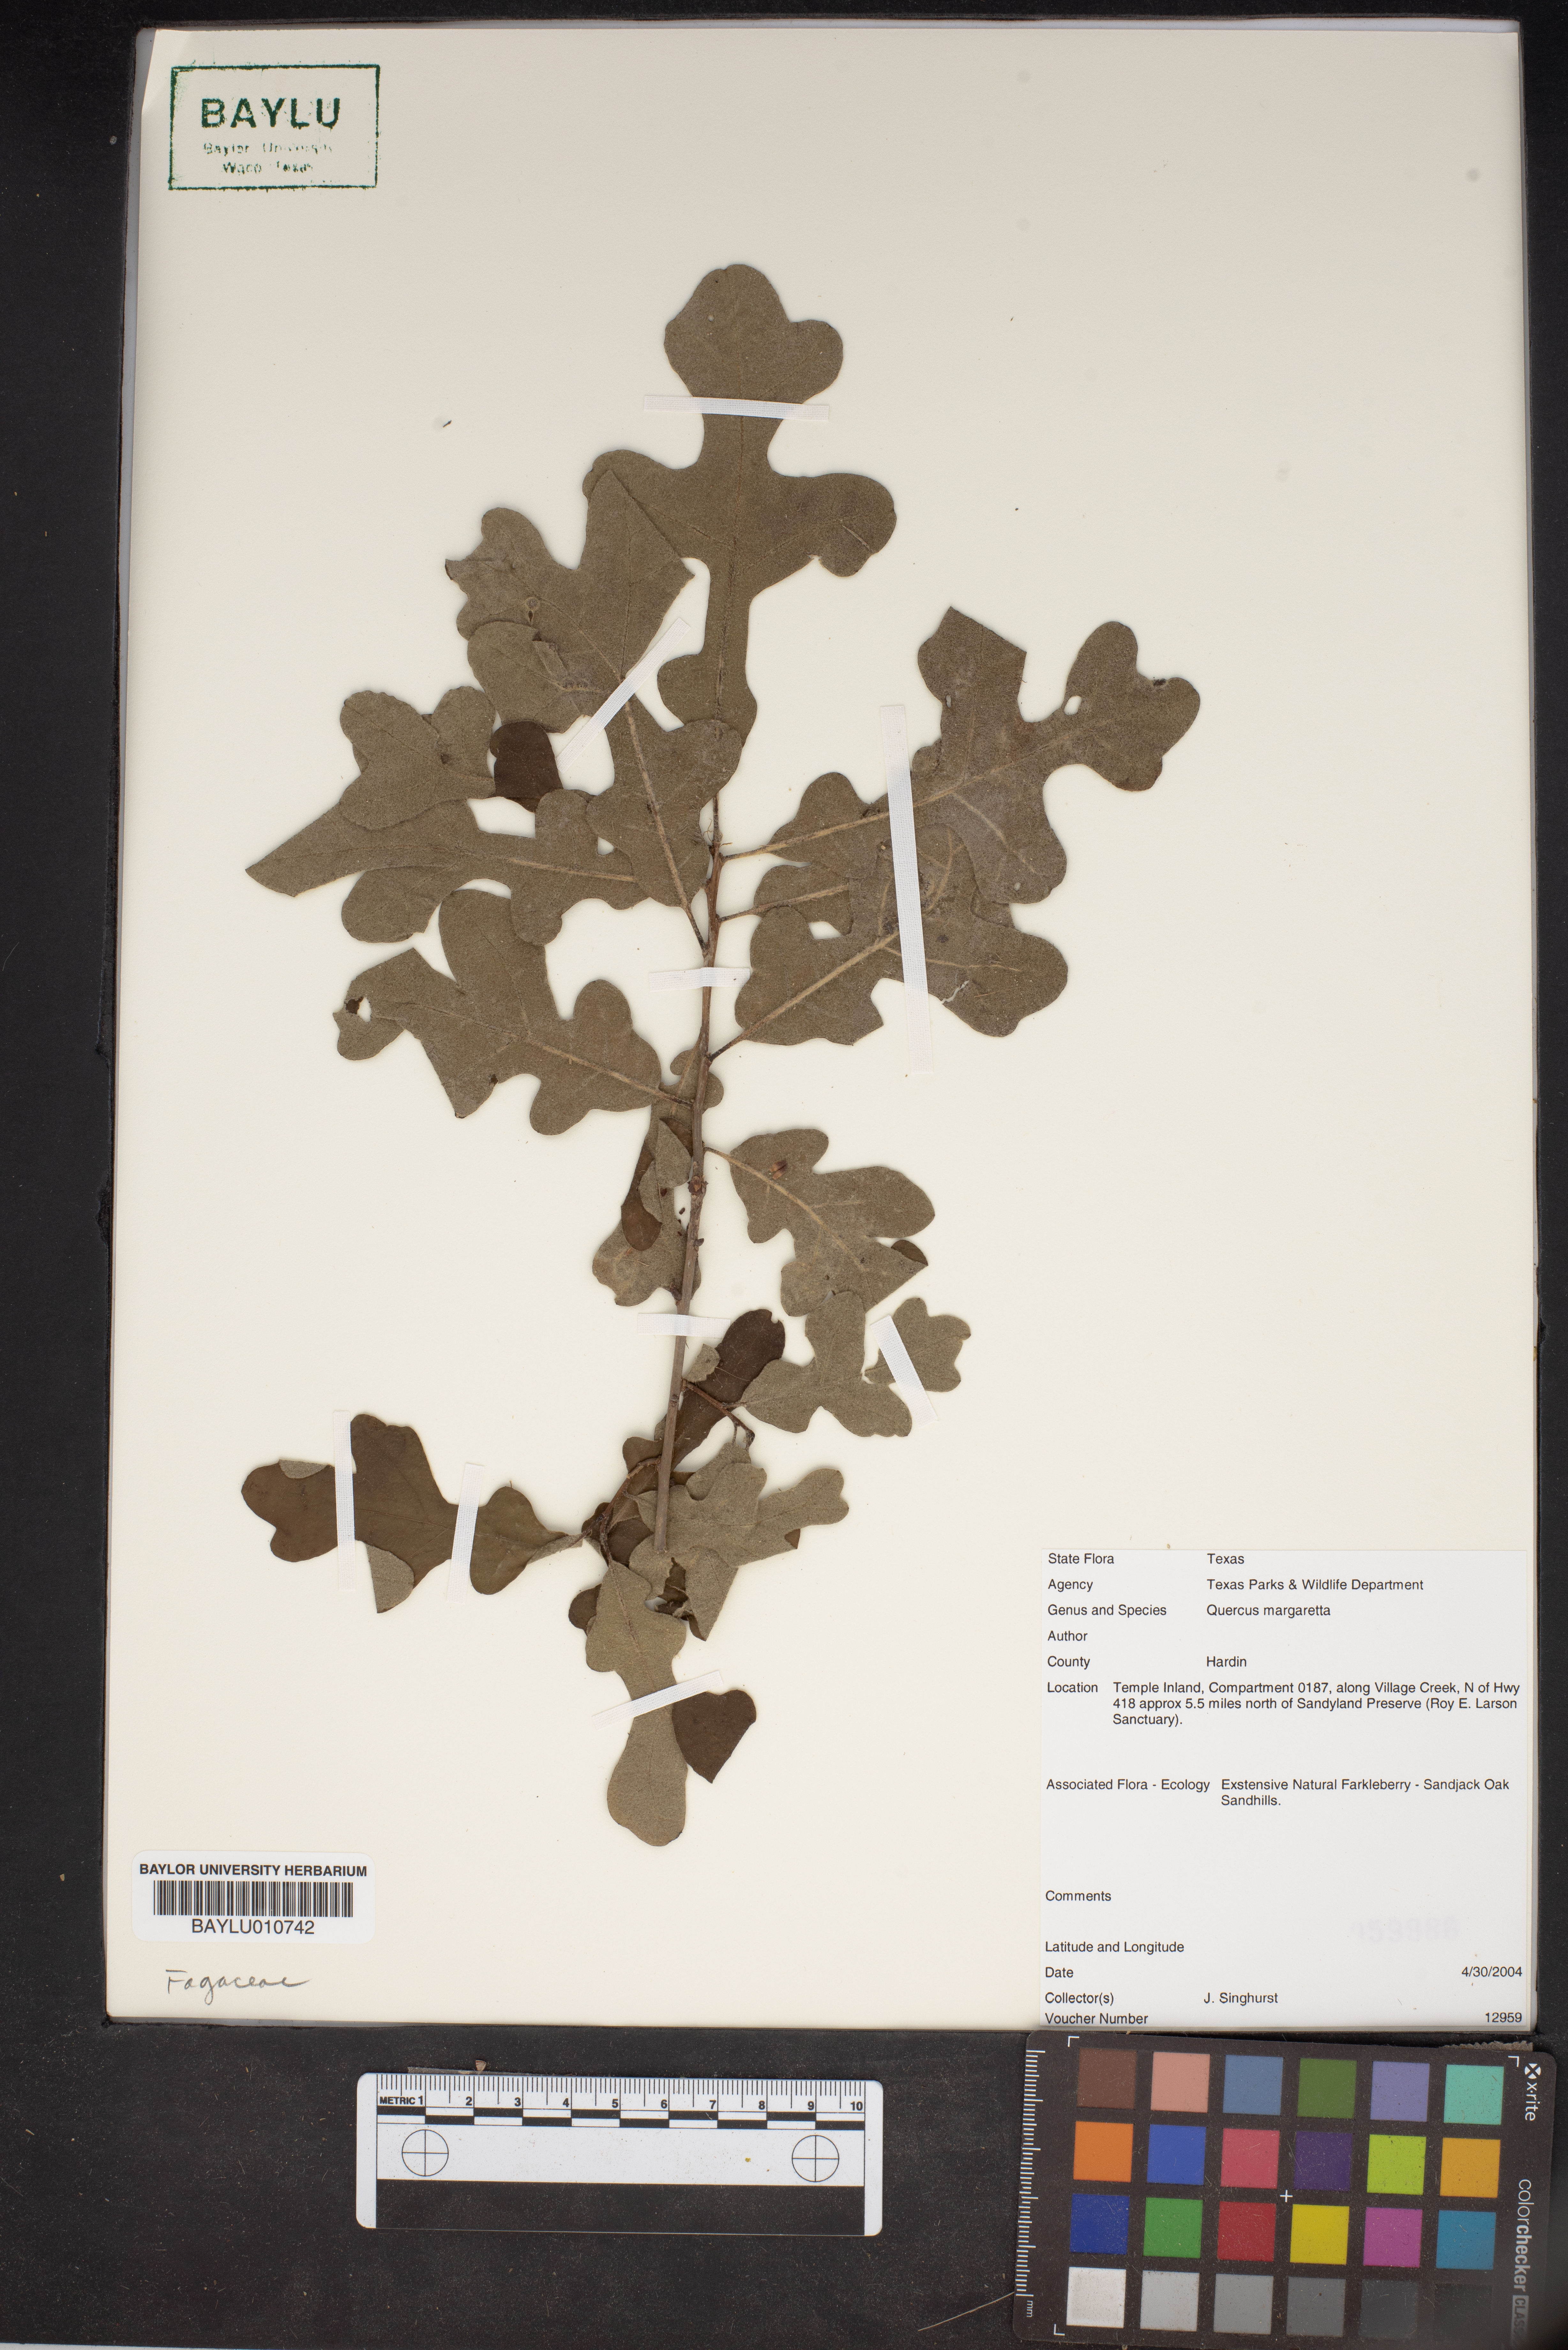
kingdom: Plantae
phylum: Tracheophyta
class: Magnoliopsida
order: Fagales
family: Fagaceae
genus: Quercus
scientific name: Quercus margaretta
